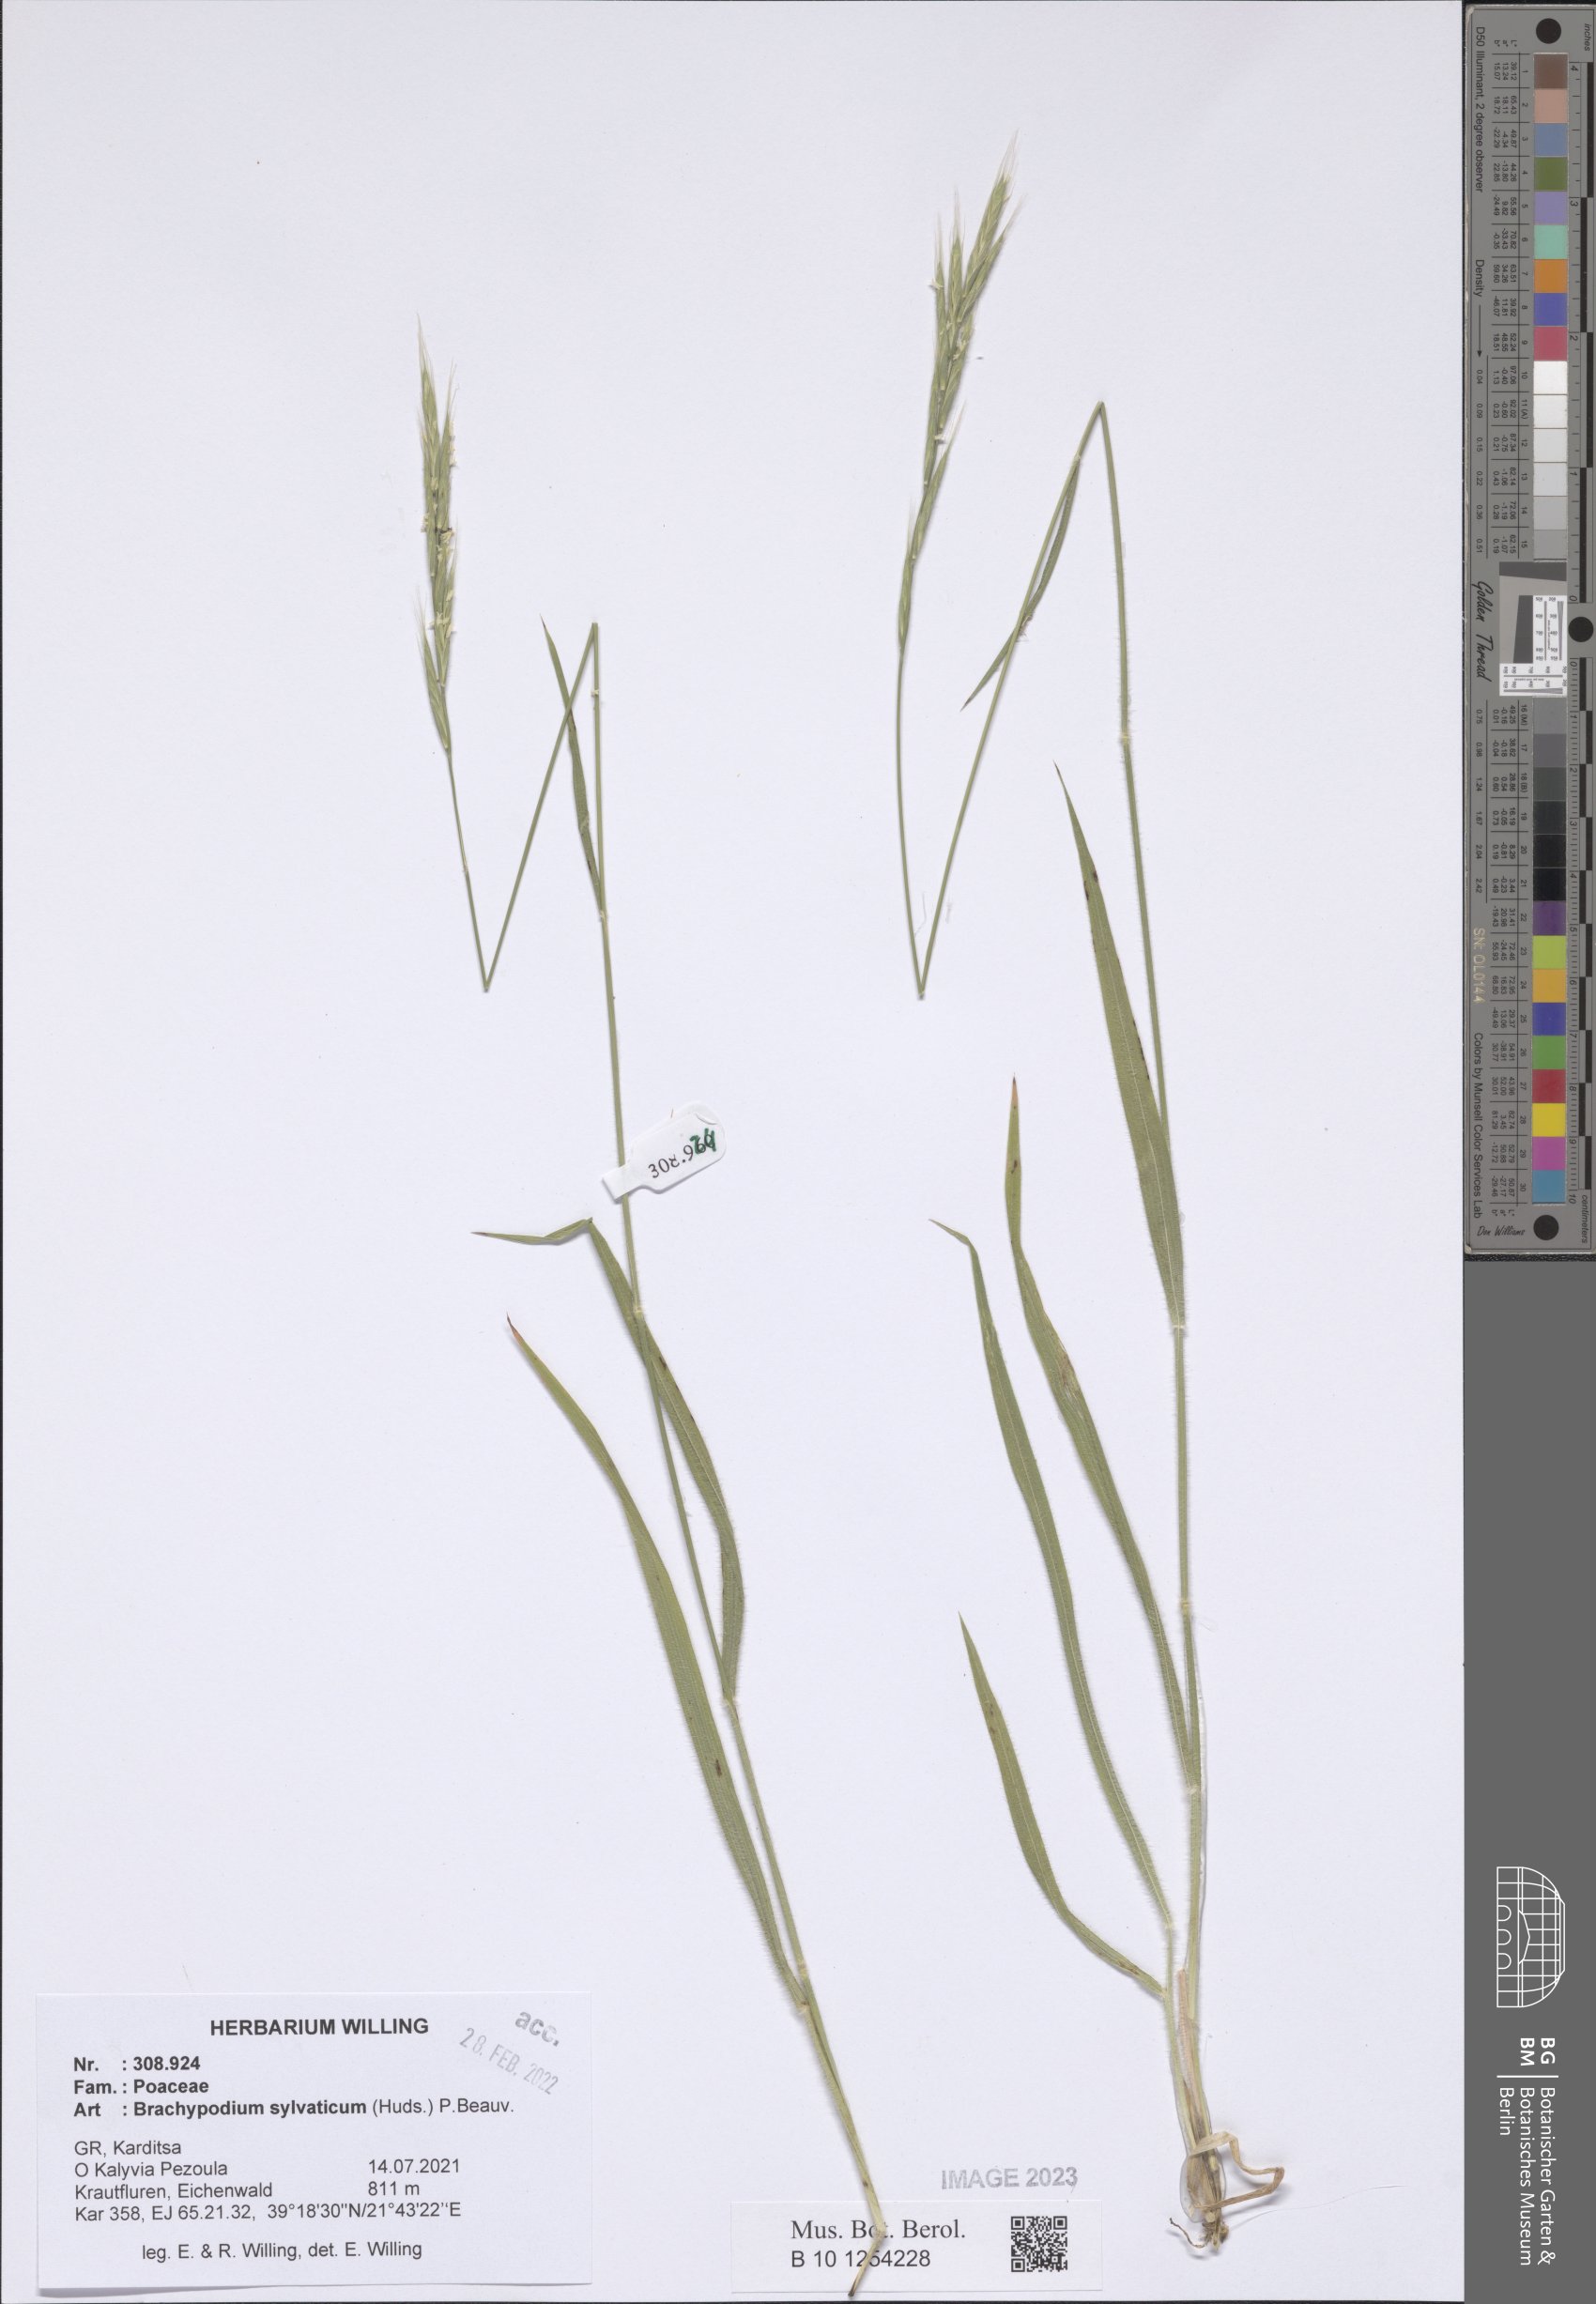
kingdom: Plantae
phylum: Tracheophyta
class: Liliopsida
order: Poales
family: Poaceae
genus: Brachypodium
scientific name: Brachypodium sylvaticum
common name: False-brome
